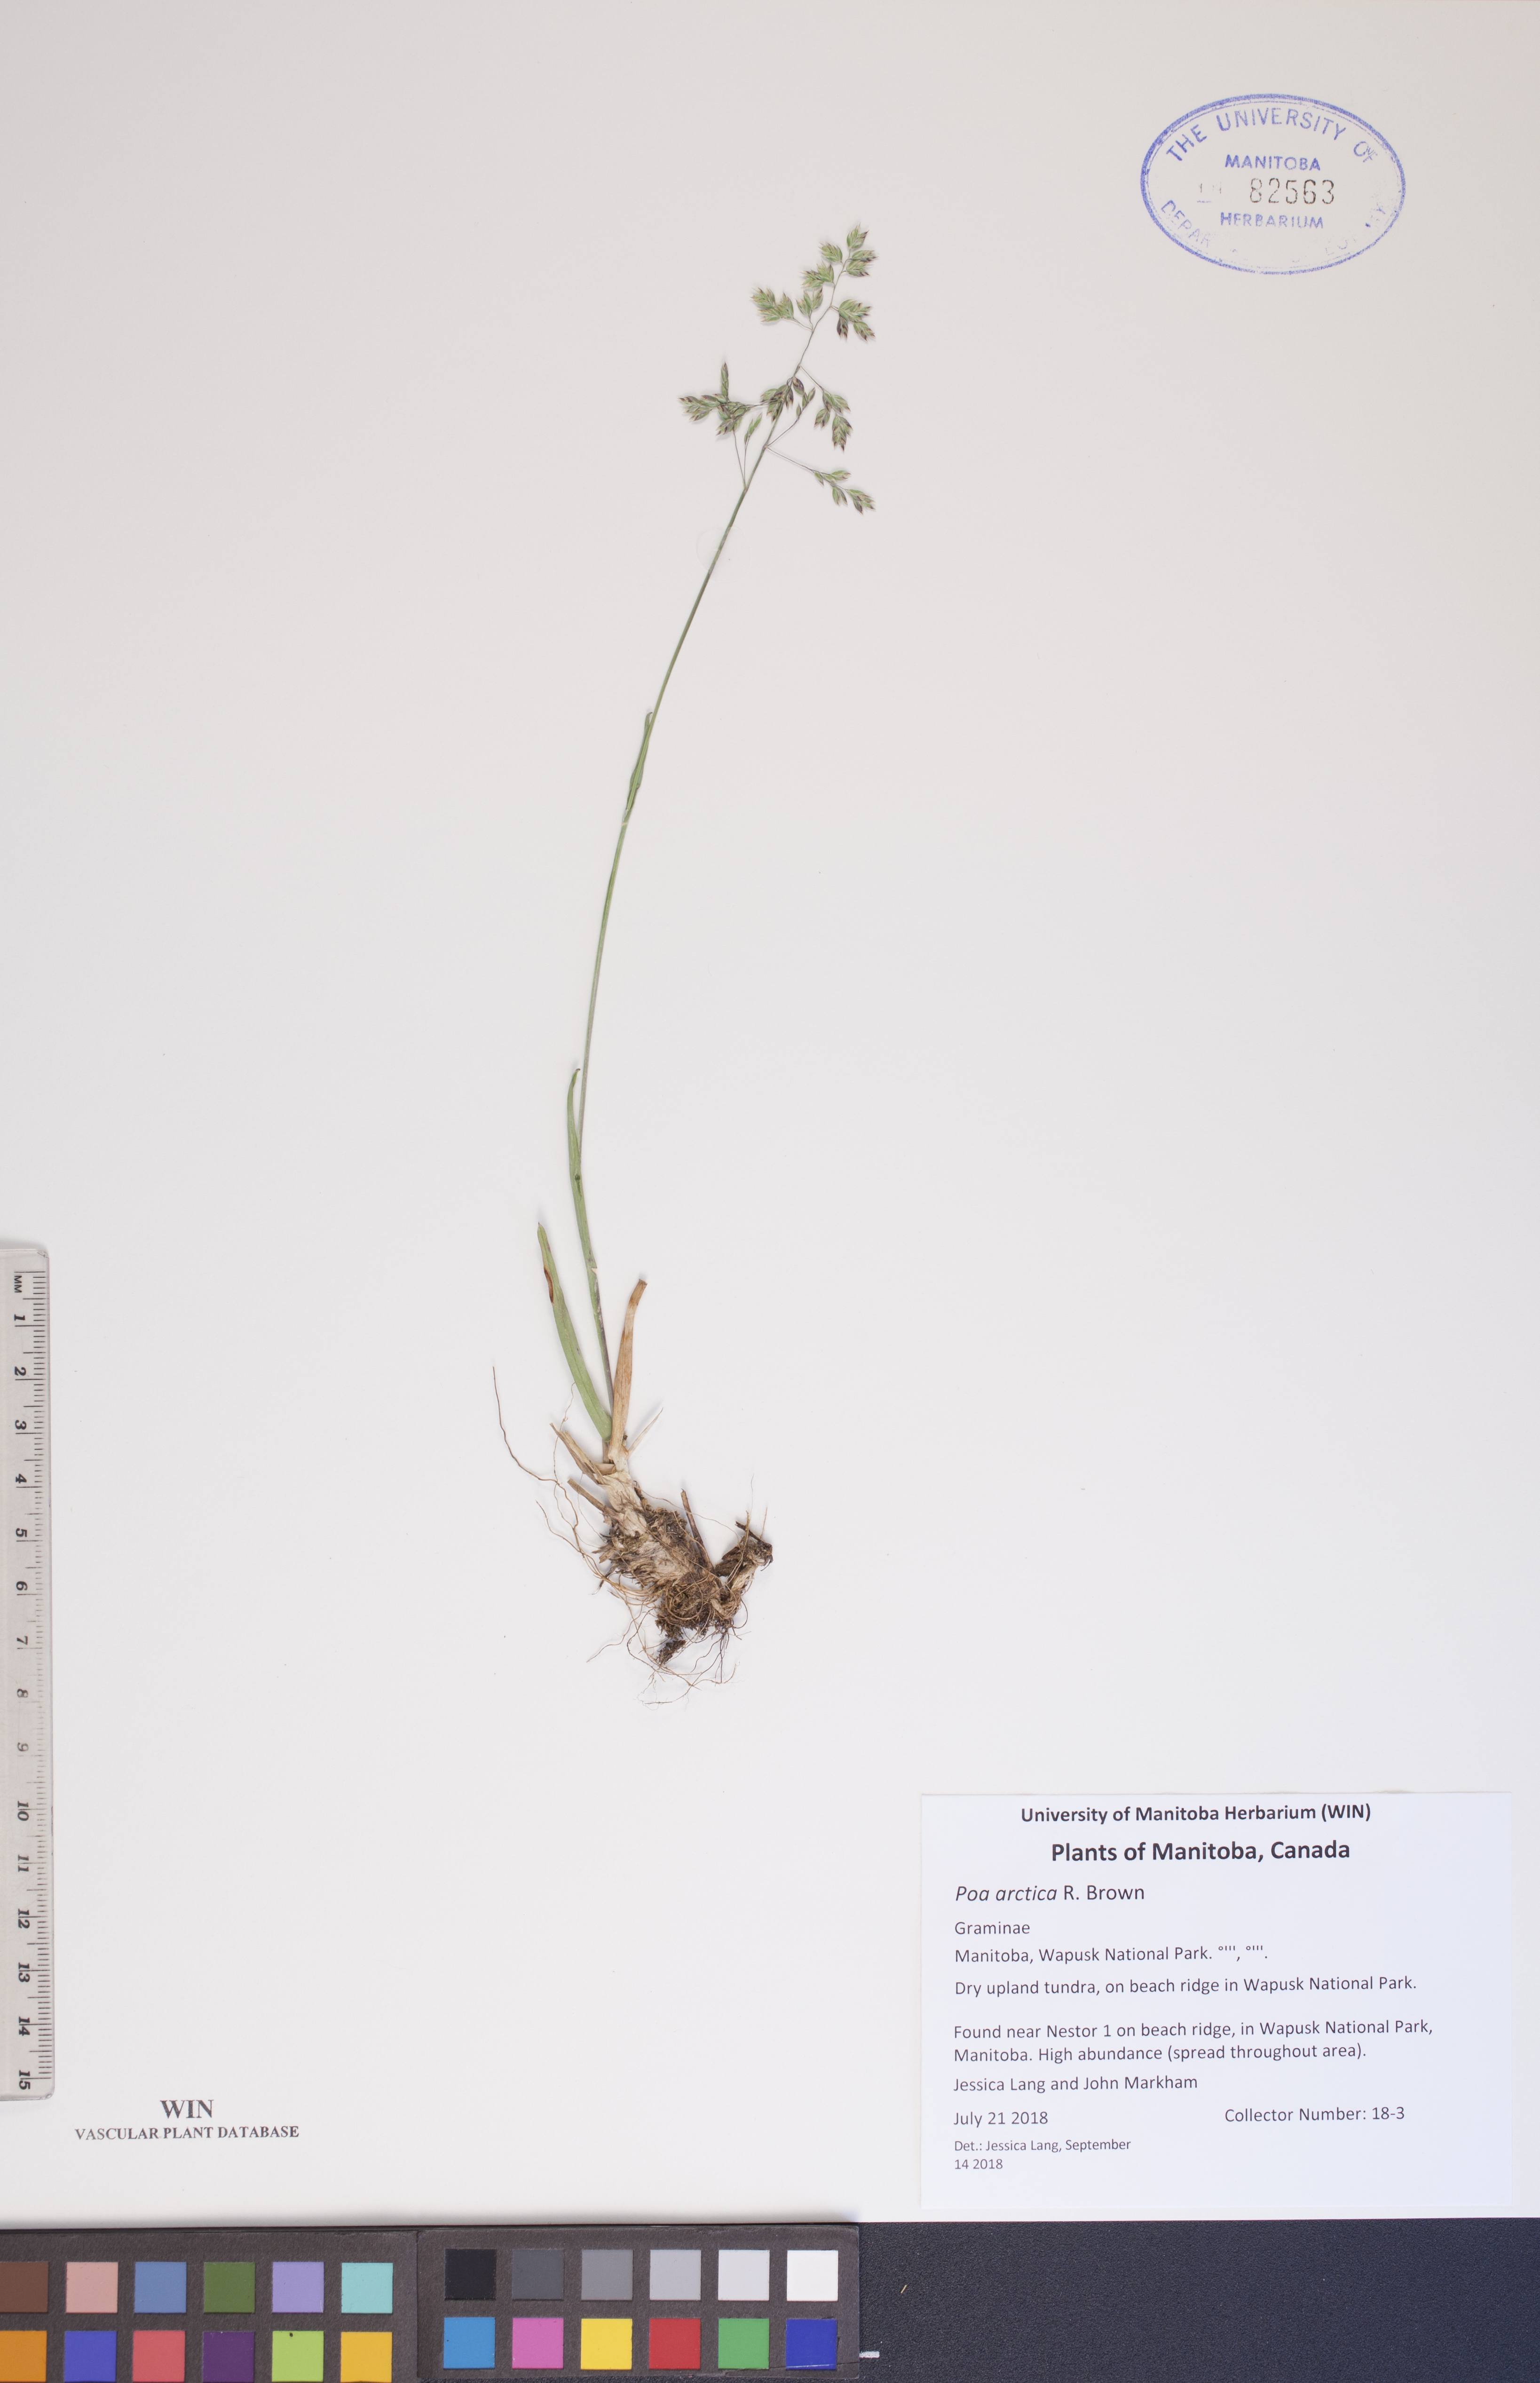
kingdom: Plantae
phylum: Tracheophyta
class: Liliopsida
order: Poales
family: Poaceae
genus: Poa
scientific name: Poa arctica
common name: Arctic bluegrass
